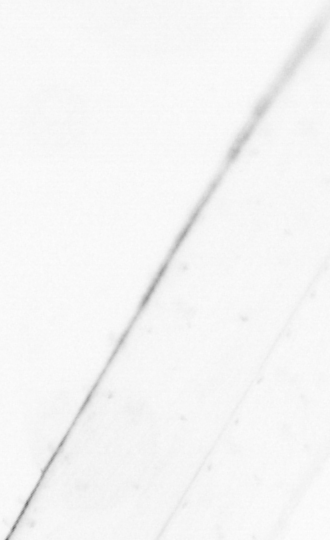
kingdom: Animalia
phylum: Chaetognatha
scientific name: Chaetognatha
